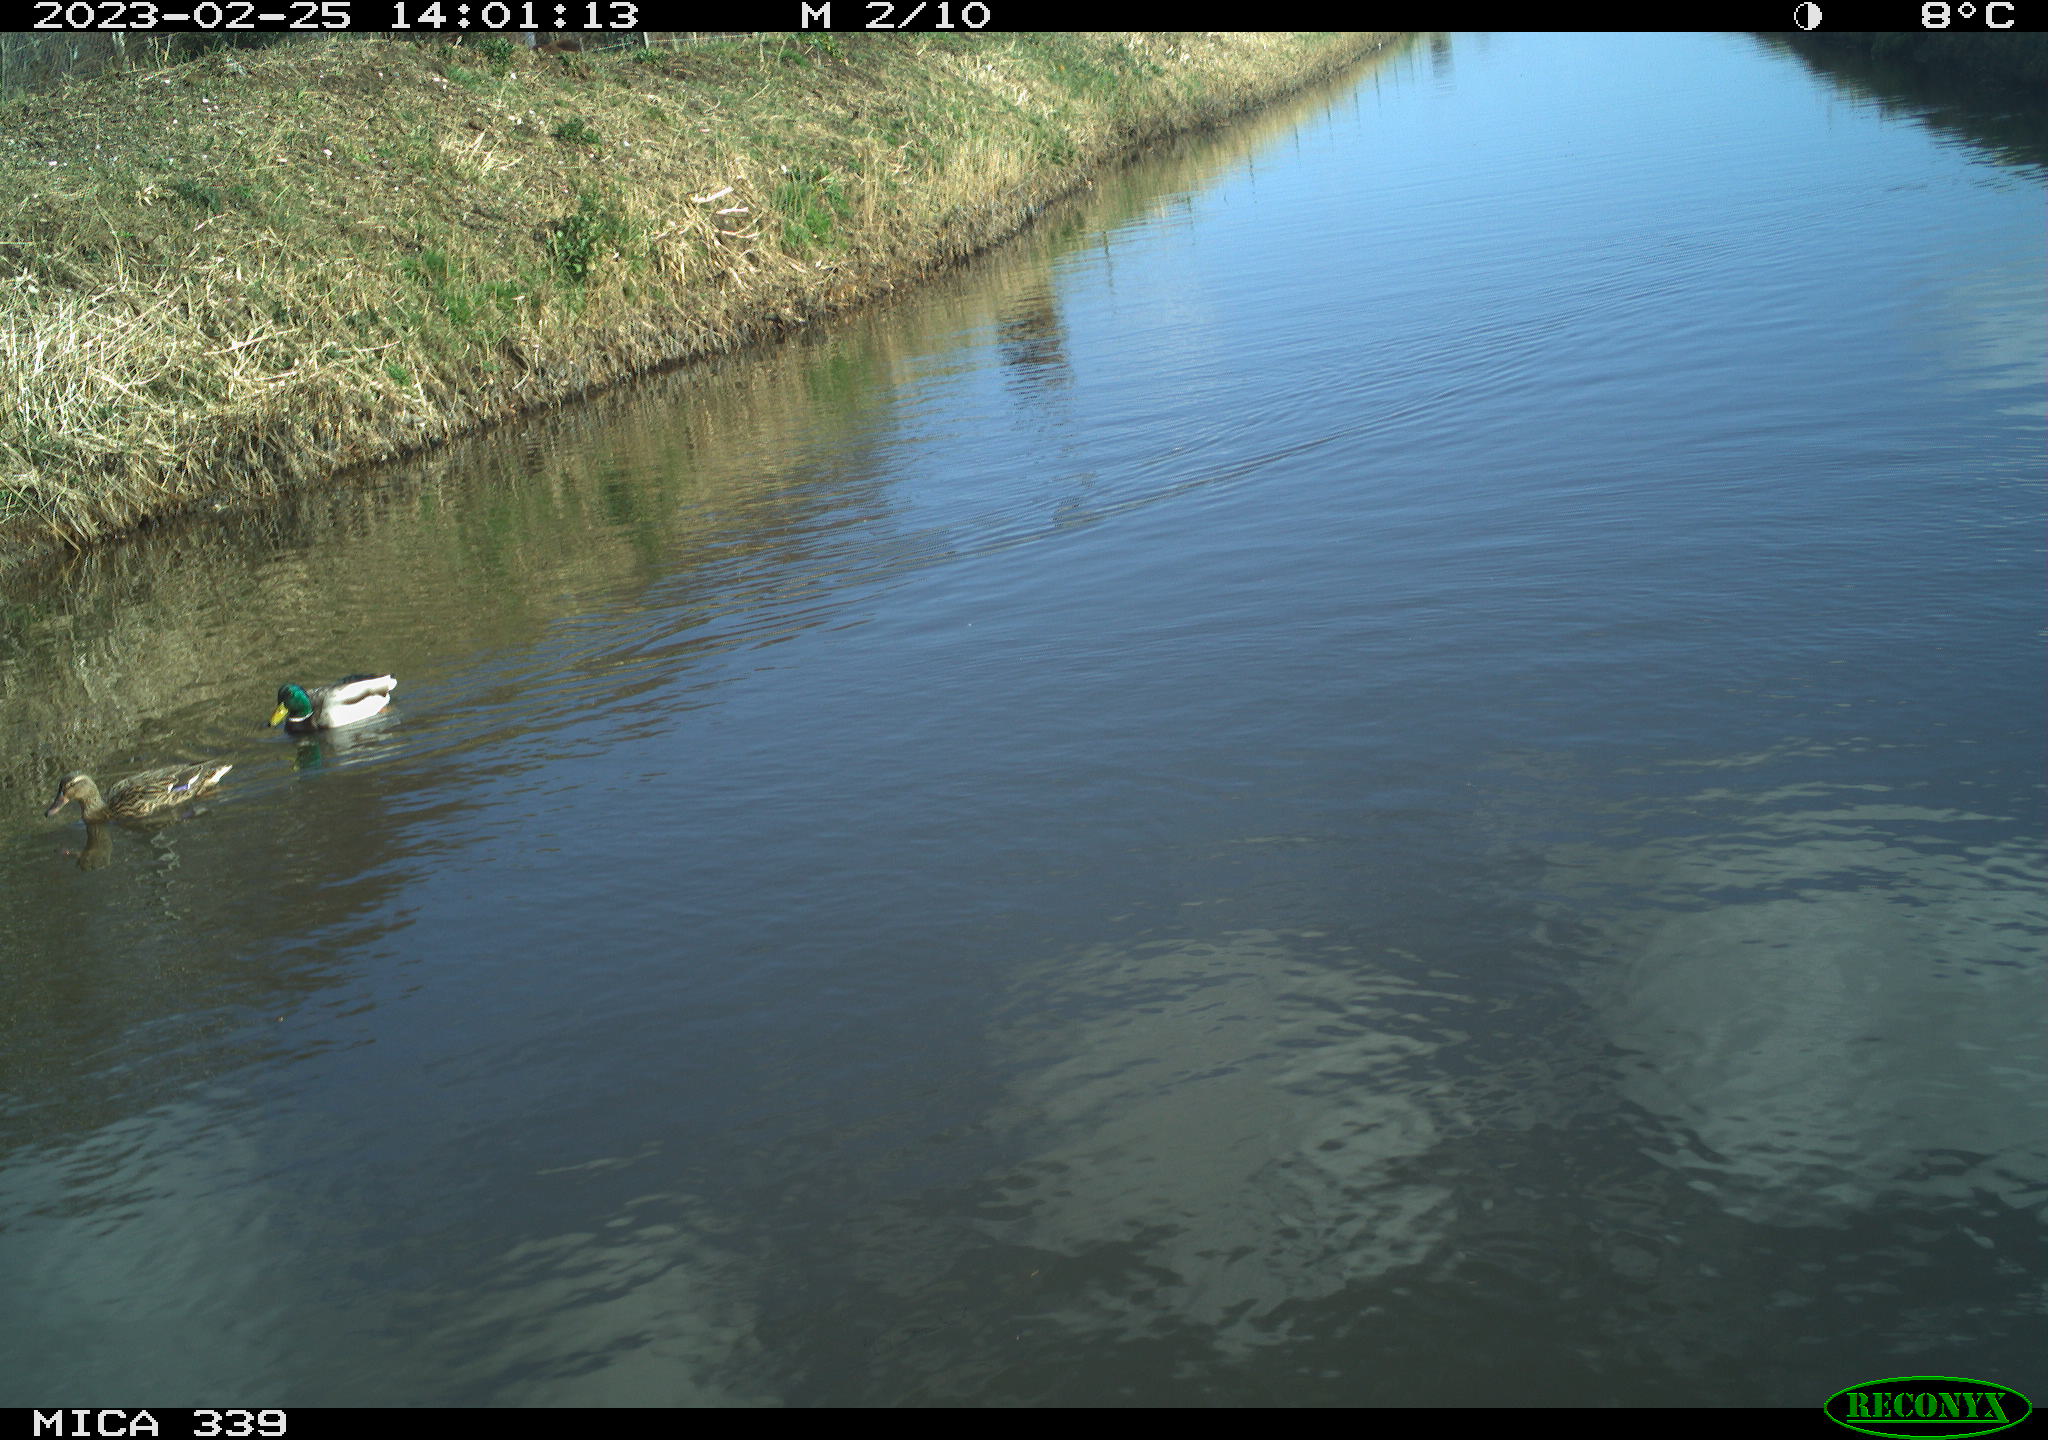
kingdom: Animalia
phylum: Chordata
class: Aves
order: Anseriformes
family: Anatidae
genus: Anas
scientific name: Anas
